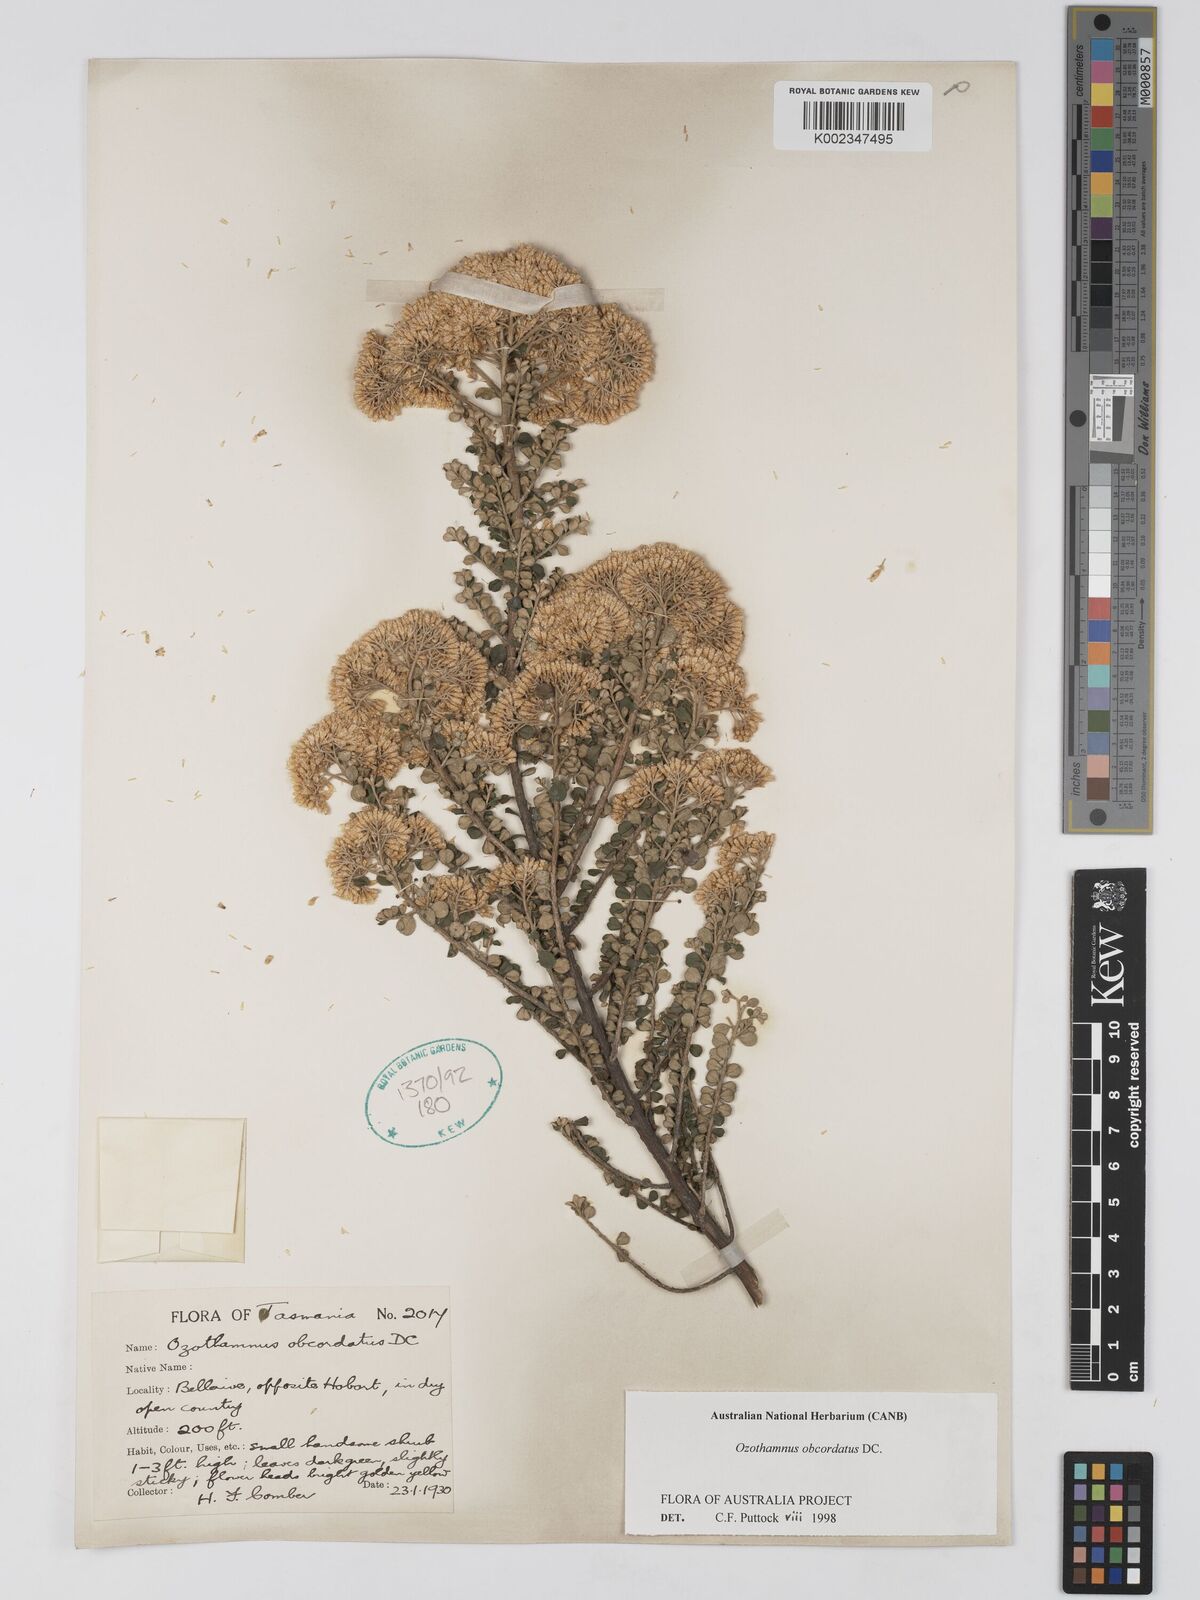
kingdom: Plantae
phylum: Tracheophyta
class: Magnoliopsida
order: Asterales
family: Asteraceae
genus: Ozothamnus
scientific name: Ozothamnus obcordatus
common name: Grey everlasting
